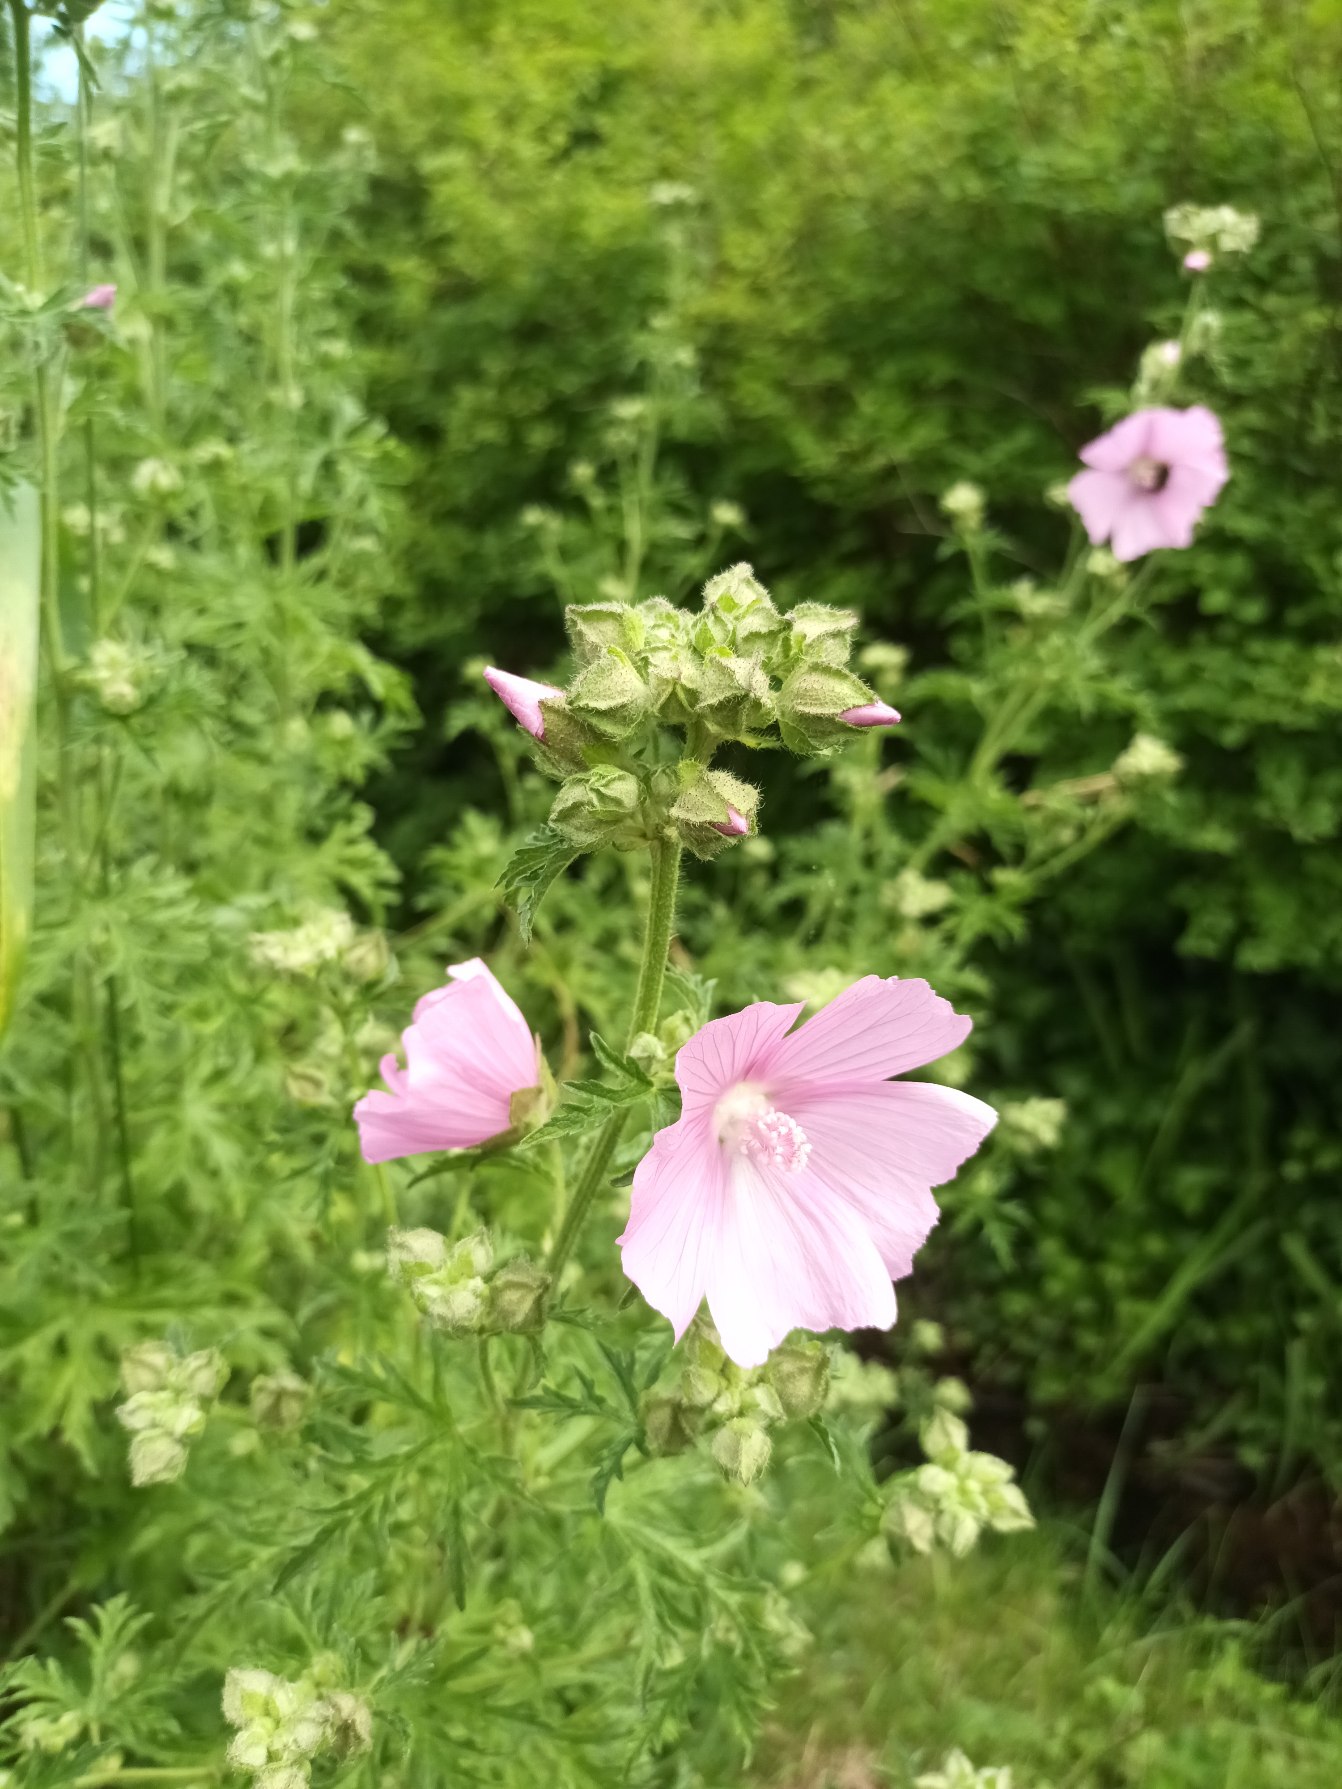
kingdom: Plantae
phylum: Tracheophyta
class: Magnoliopsida
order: Malvales
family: Malvaceae
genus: Malva
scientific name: Malva
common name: Rosen-katost × moskus-katost
